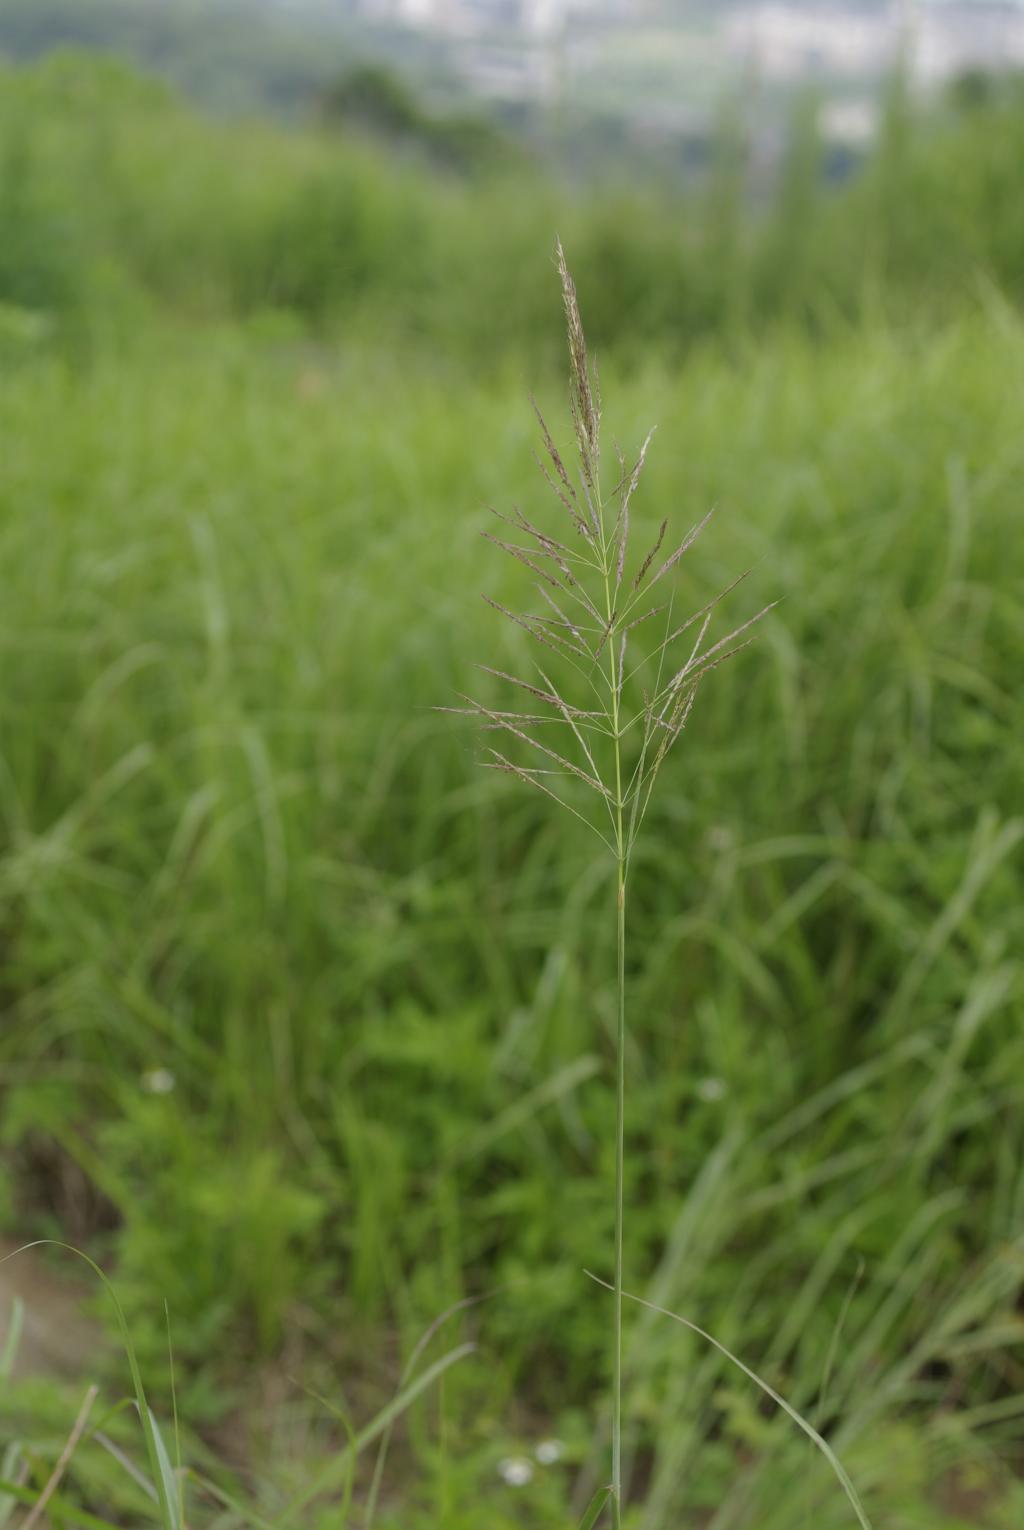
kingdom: Plantae
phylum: Tracheophyta
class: Liliopsida
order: Poales
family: Poaceae
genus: Bothriochloa
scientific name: Bothriochloa glabra
